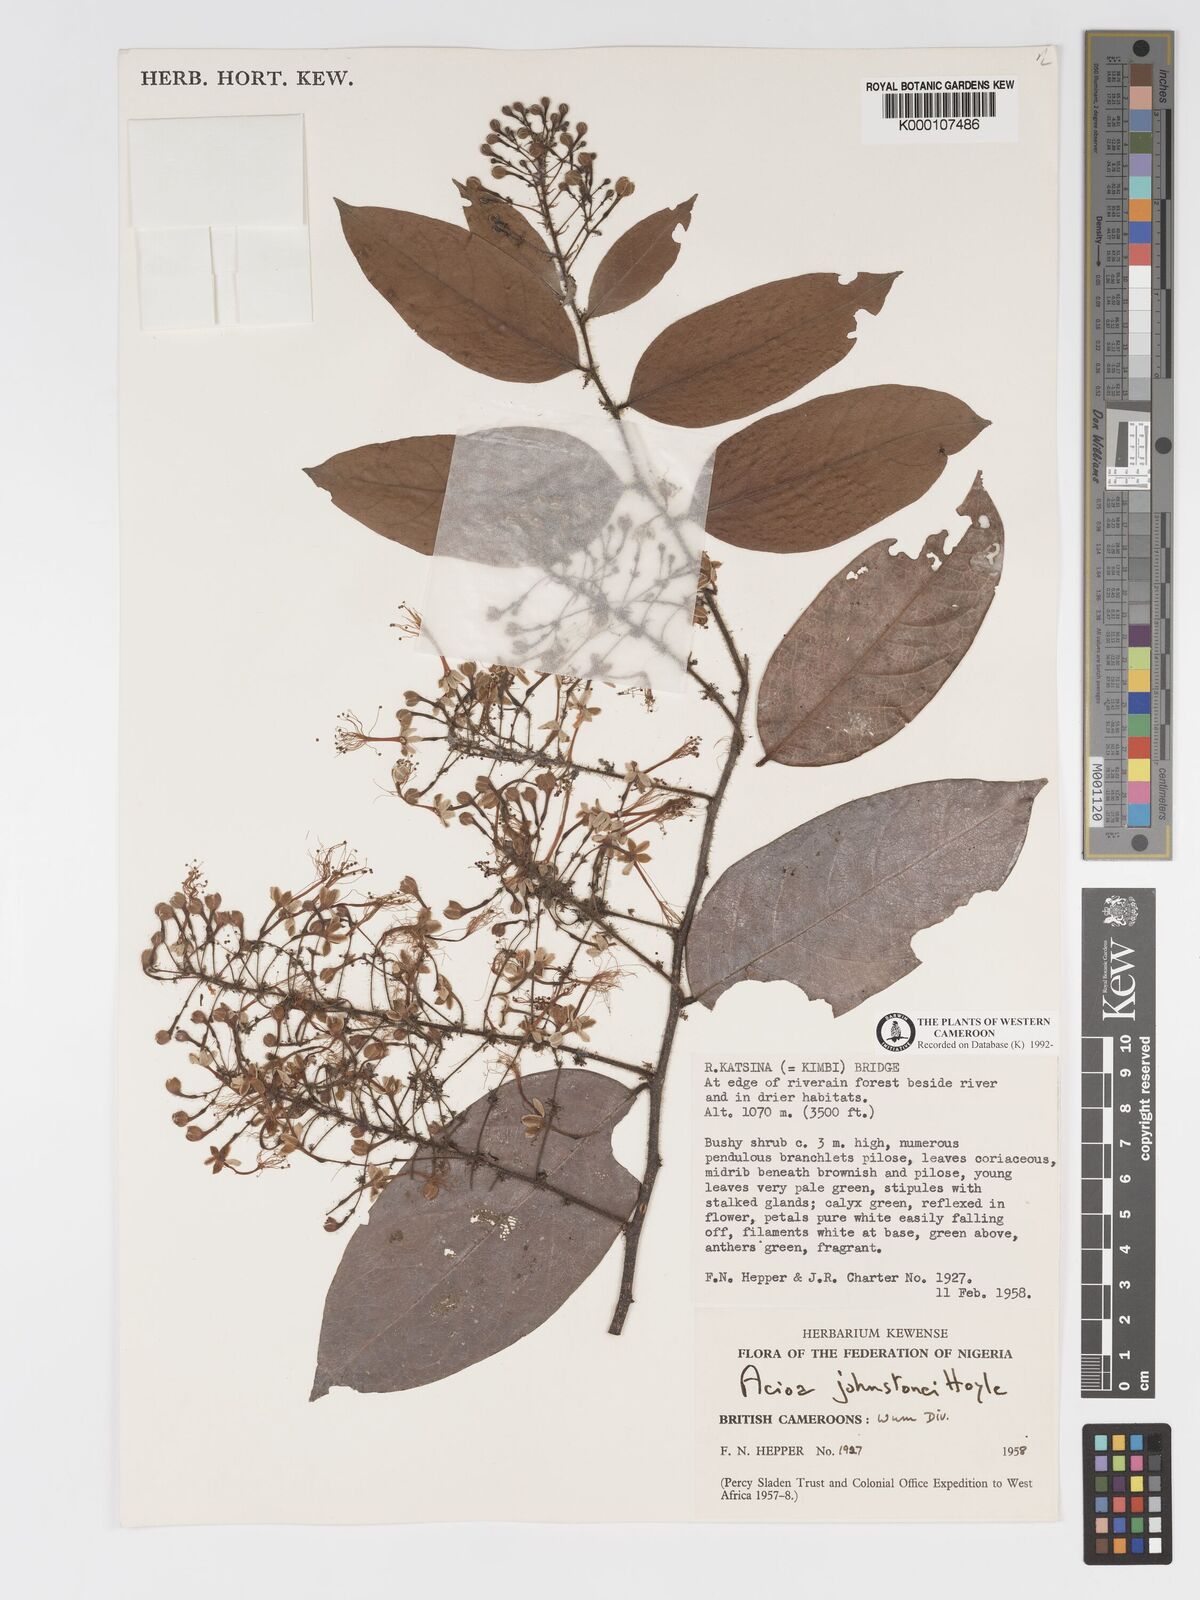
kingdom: Plantae
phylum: Tracheophyta
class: Magnoliopsida
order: Malpighiales
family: Chrysobalanaceae
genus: Dactyladenia
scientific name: Dactyladenia johnstonei
